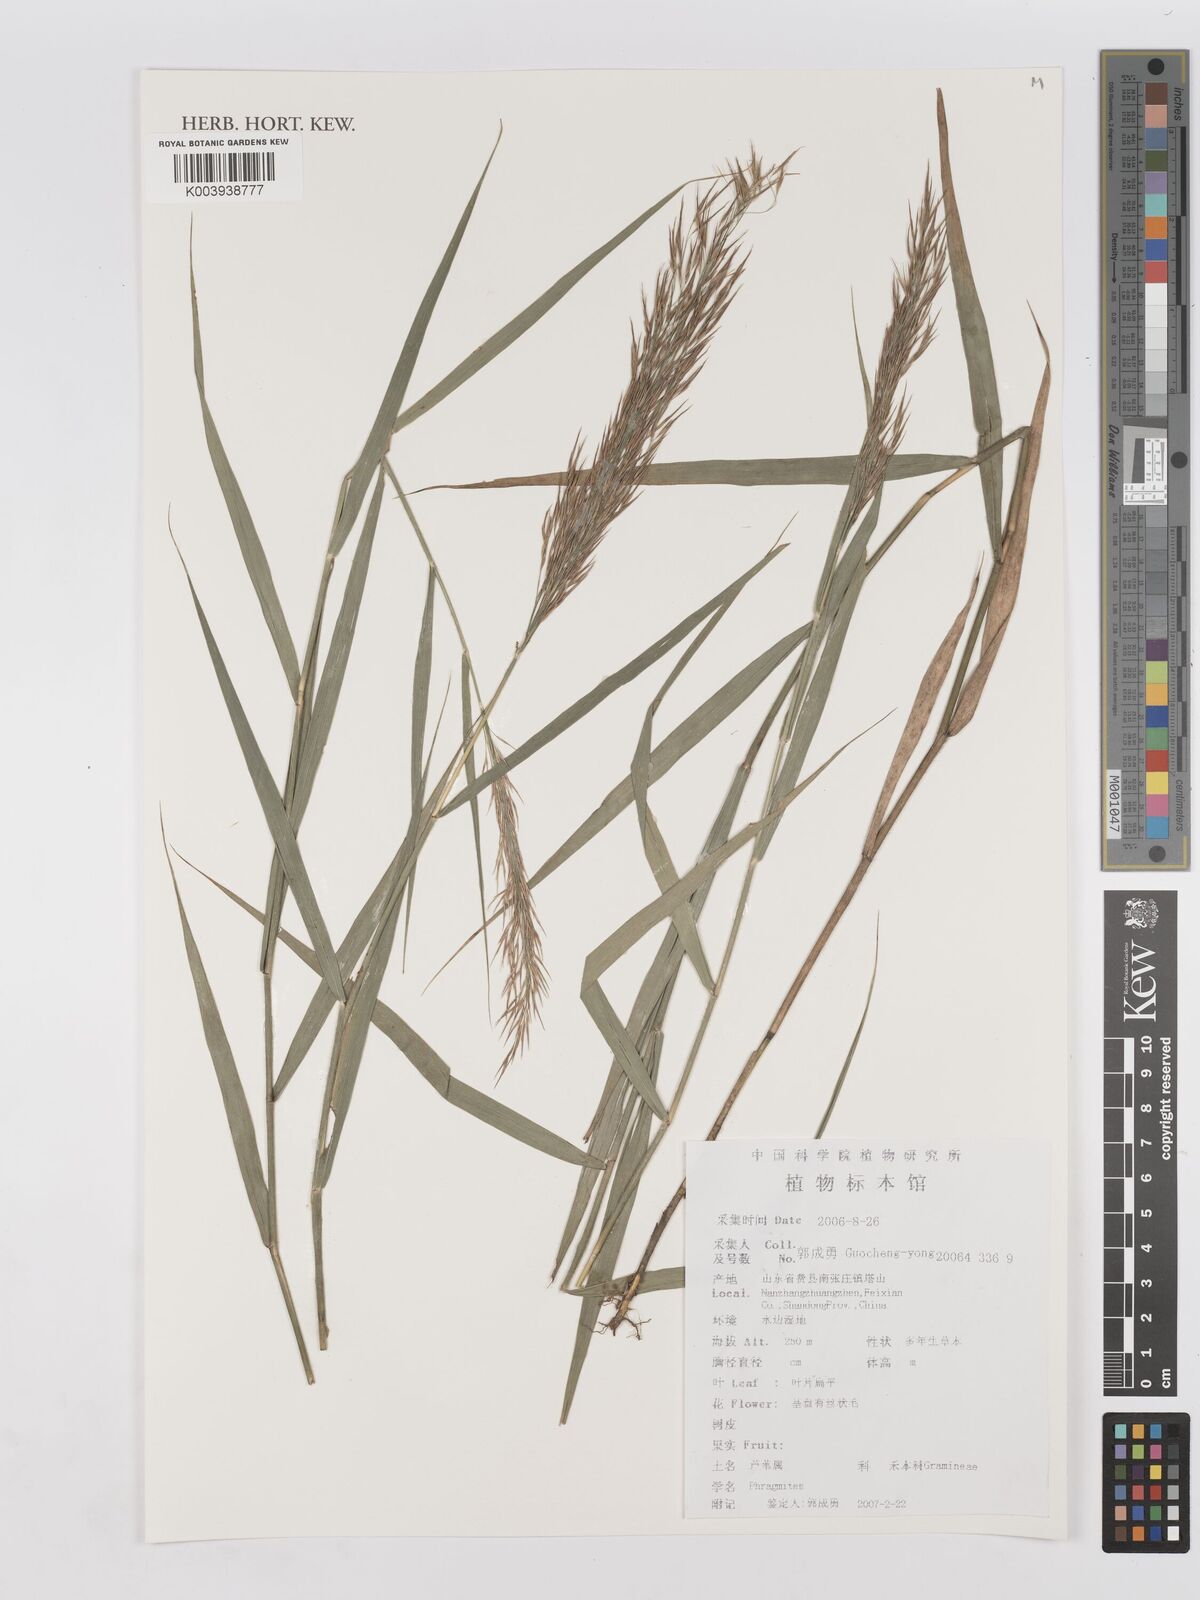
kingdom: Plantae
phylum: Tracheophyta
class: Liliopsida
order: Poales
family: Poaceae
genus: Phragmites
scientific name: Phragmites
